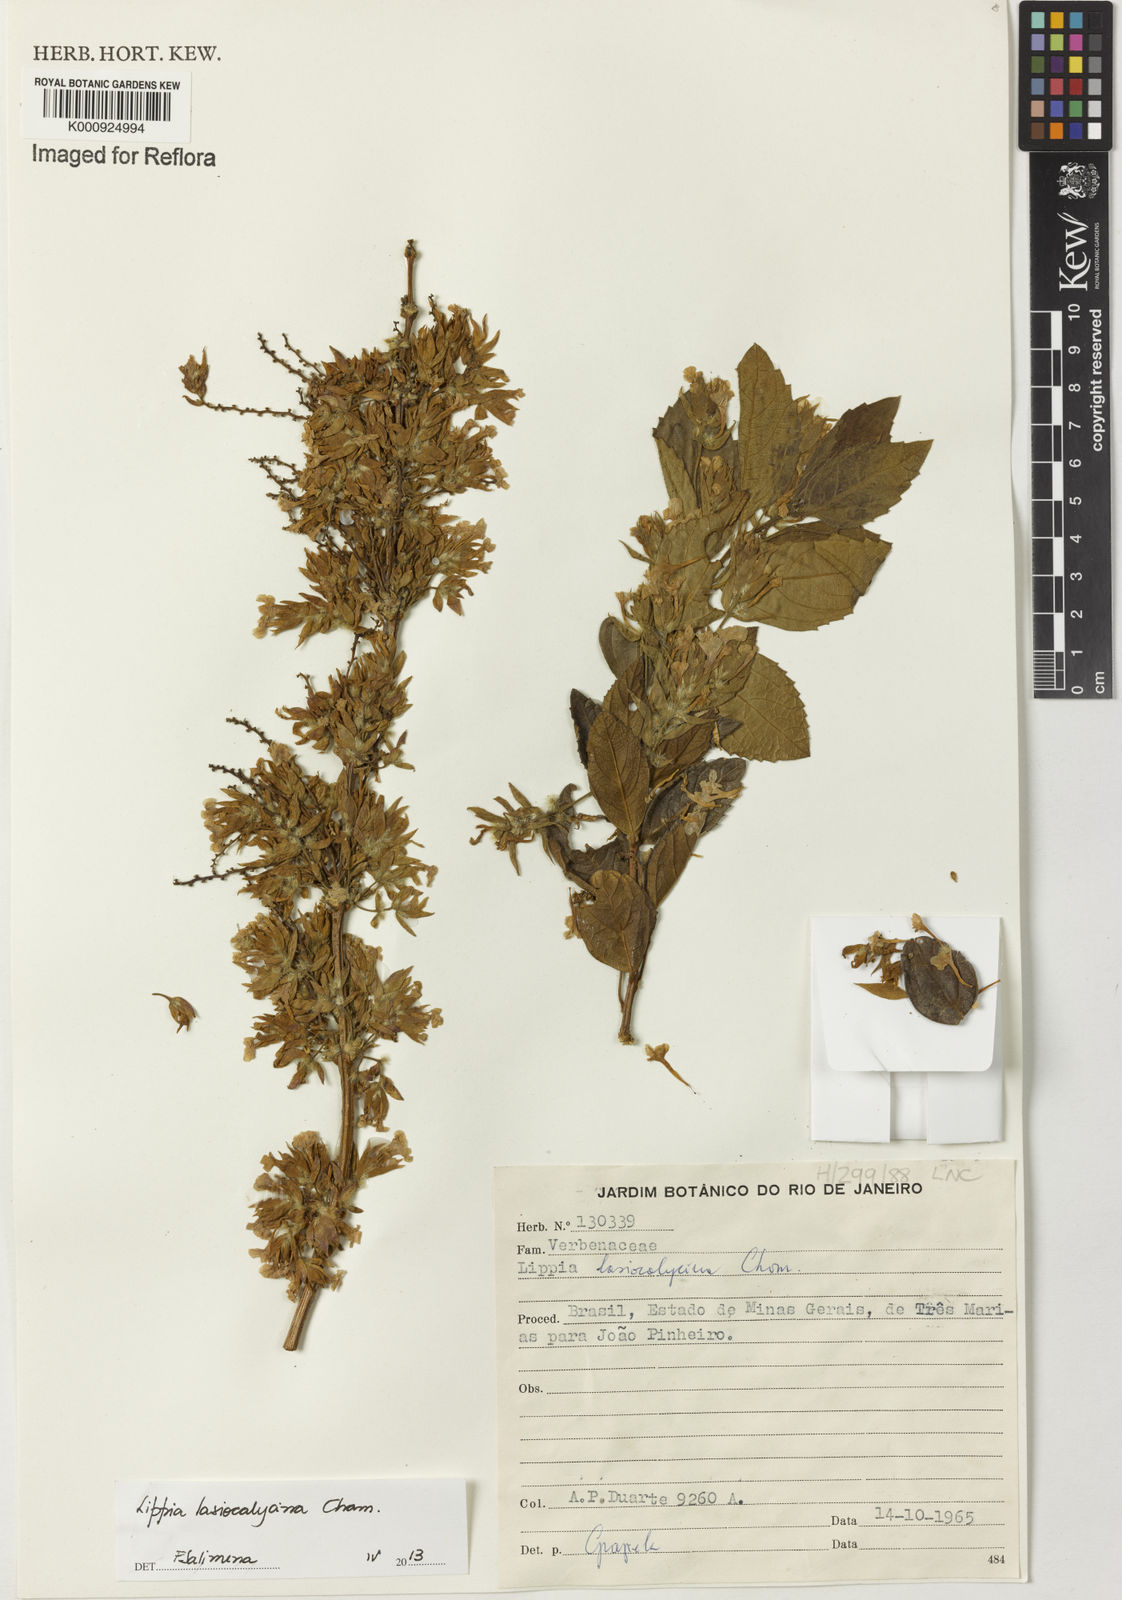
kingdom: Plantae
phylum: Tracheophyta
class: Magnoliopsida
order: Lamiales
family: Verbenaceae
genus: Lippia
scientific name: Lippia lasiocalycina
